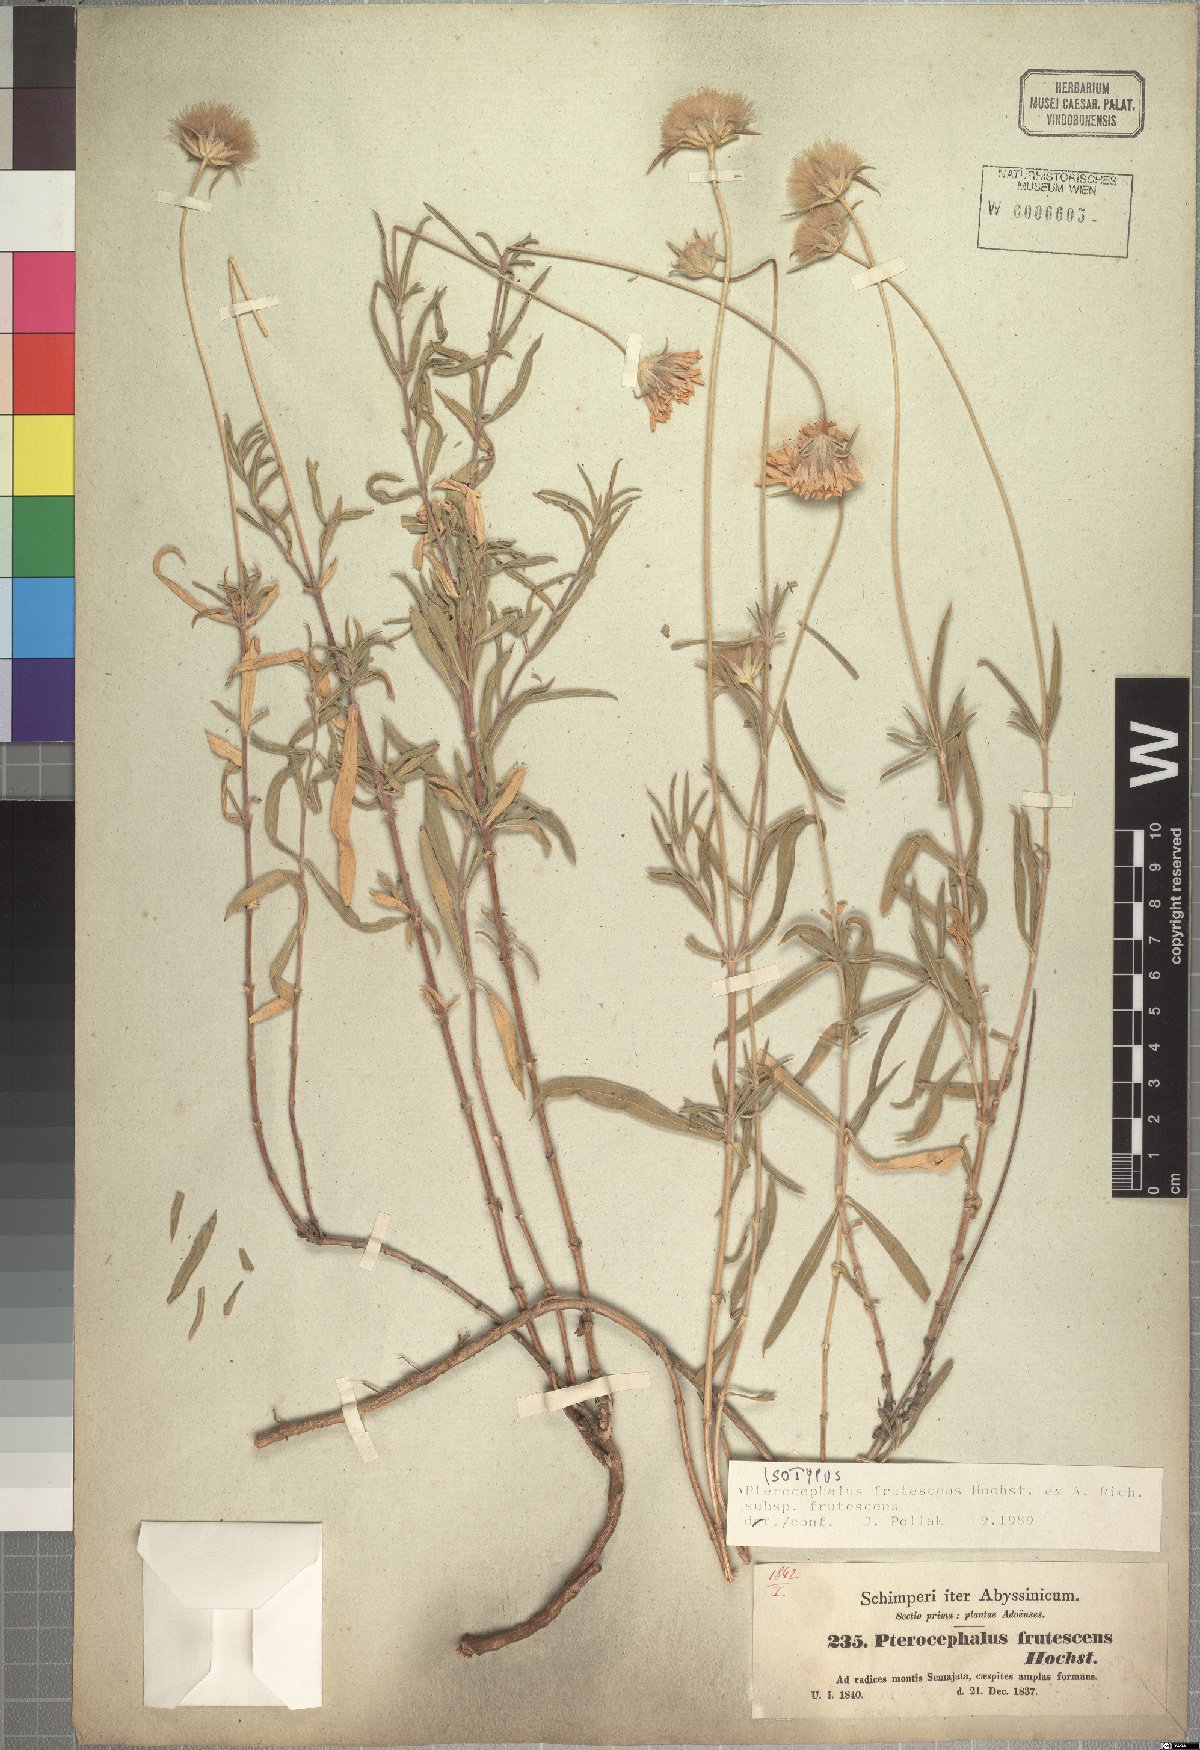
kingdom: Plantae
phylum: Tracheophyta
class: Magnoliopsida
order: Dipsacales
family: Caprifoliaceae
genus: Pterocephalus
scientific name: Pterocephalus frutescens
